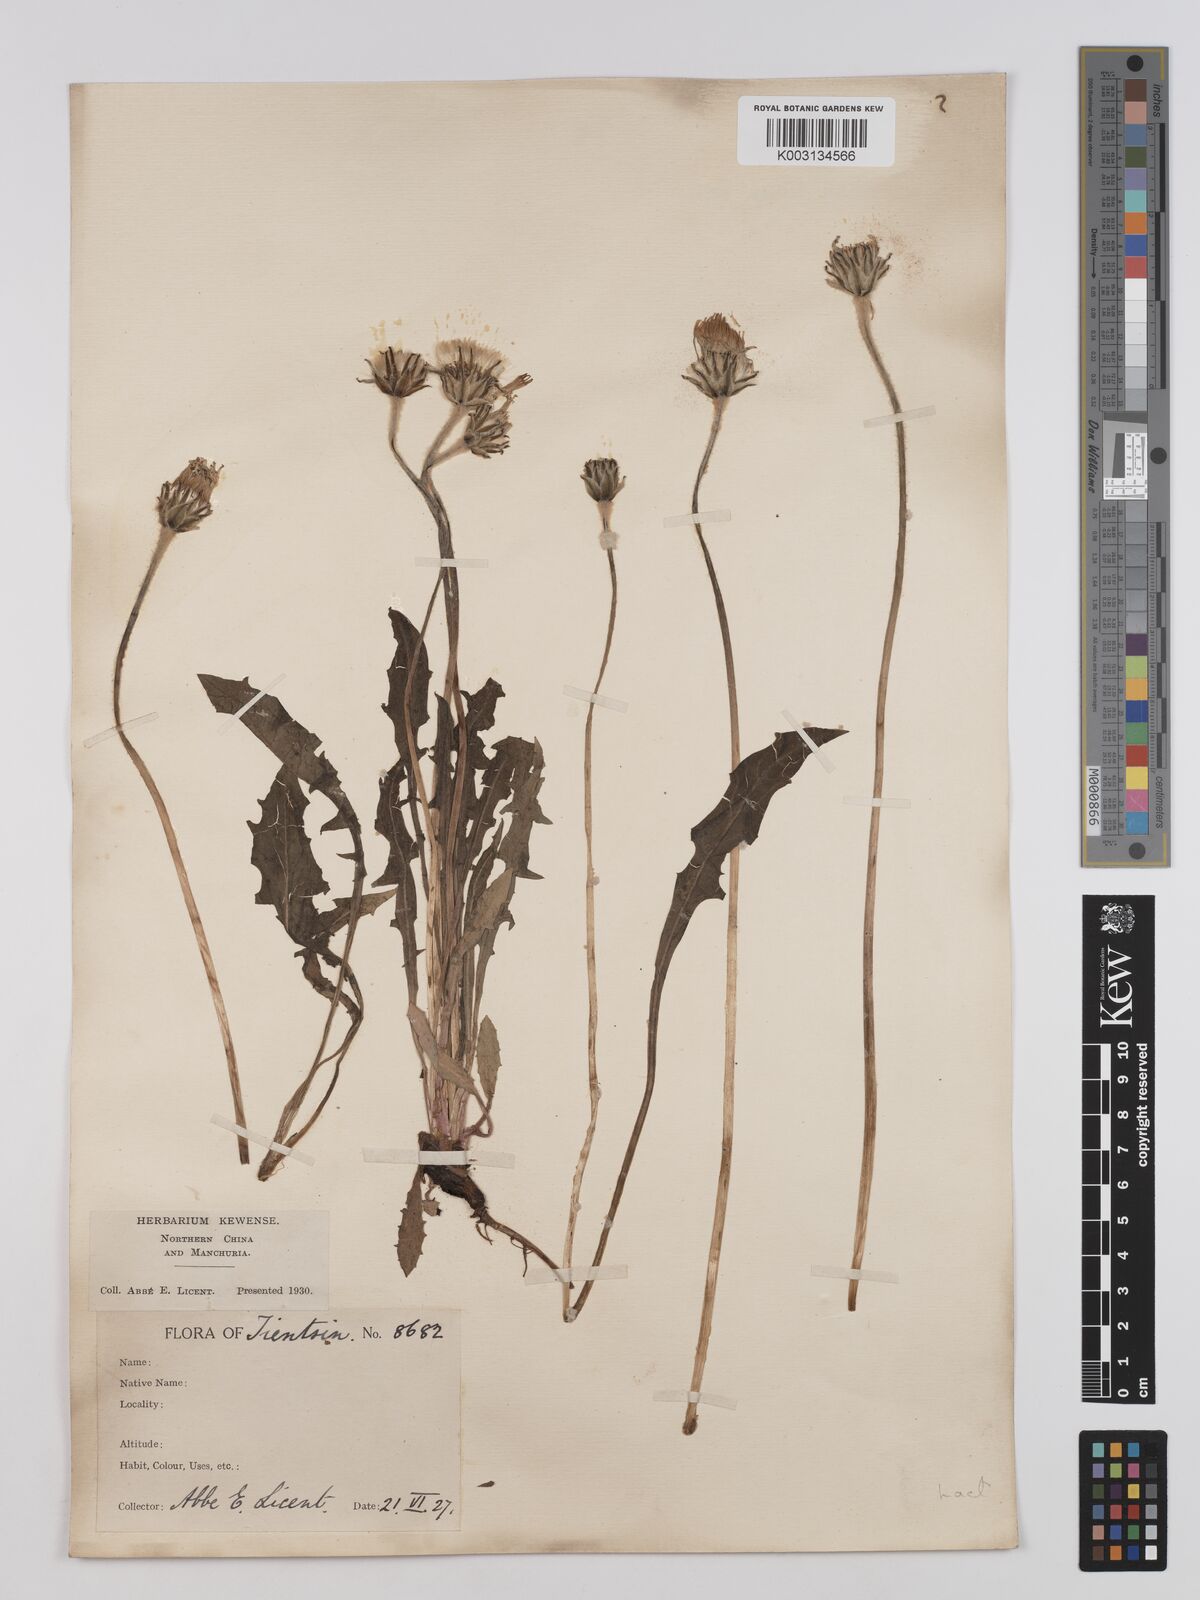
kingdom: Plantae
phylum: Tracheophyta
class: Magnoliopsida
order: Asterales
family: Asteraceae
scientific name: Asteraceae
